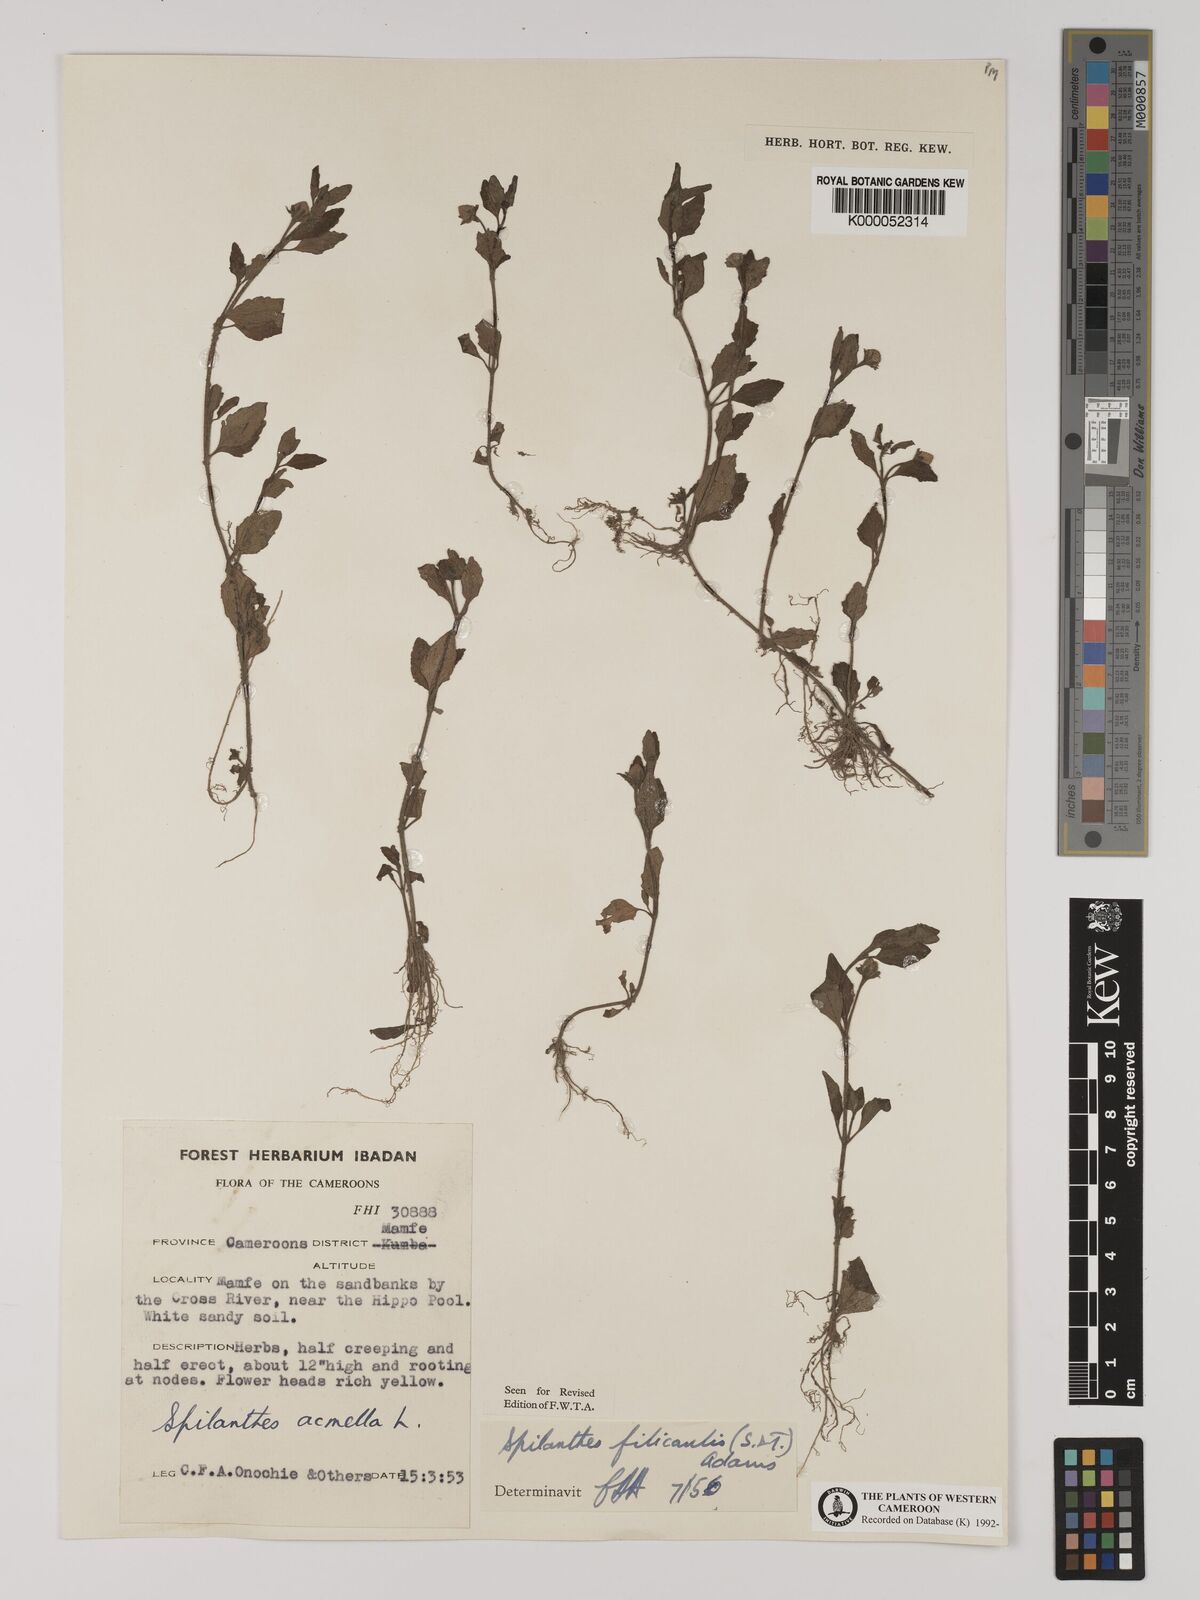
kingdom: Plantae
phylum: Tracheophyta
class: Magnoliopsida
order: Asterales
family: Asteraceae
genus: Acmella
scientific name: Acmella caulirhiza
